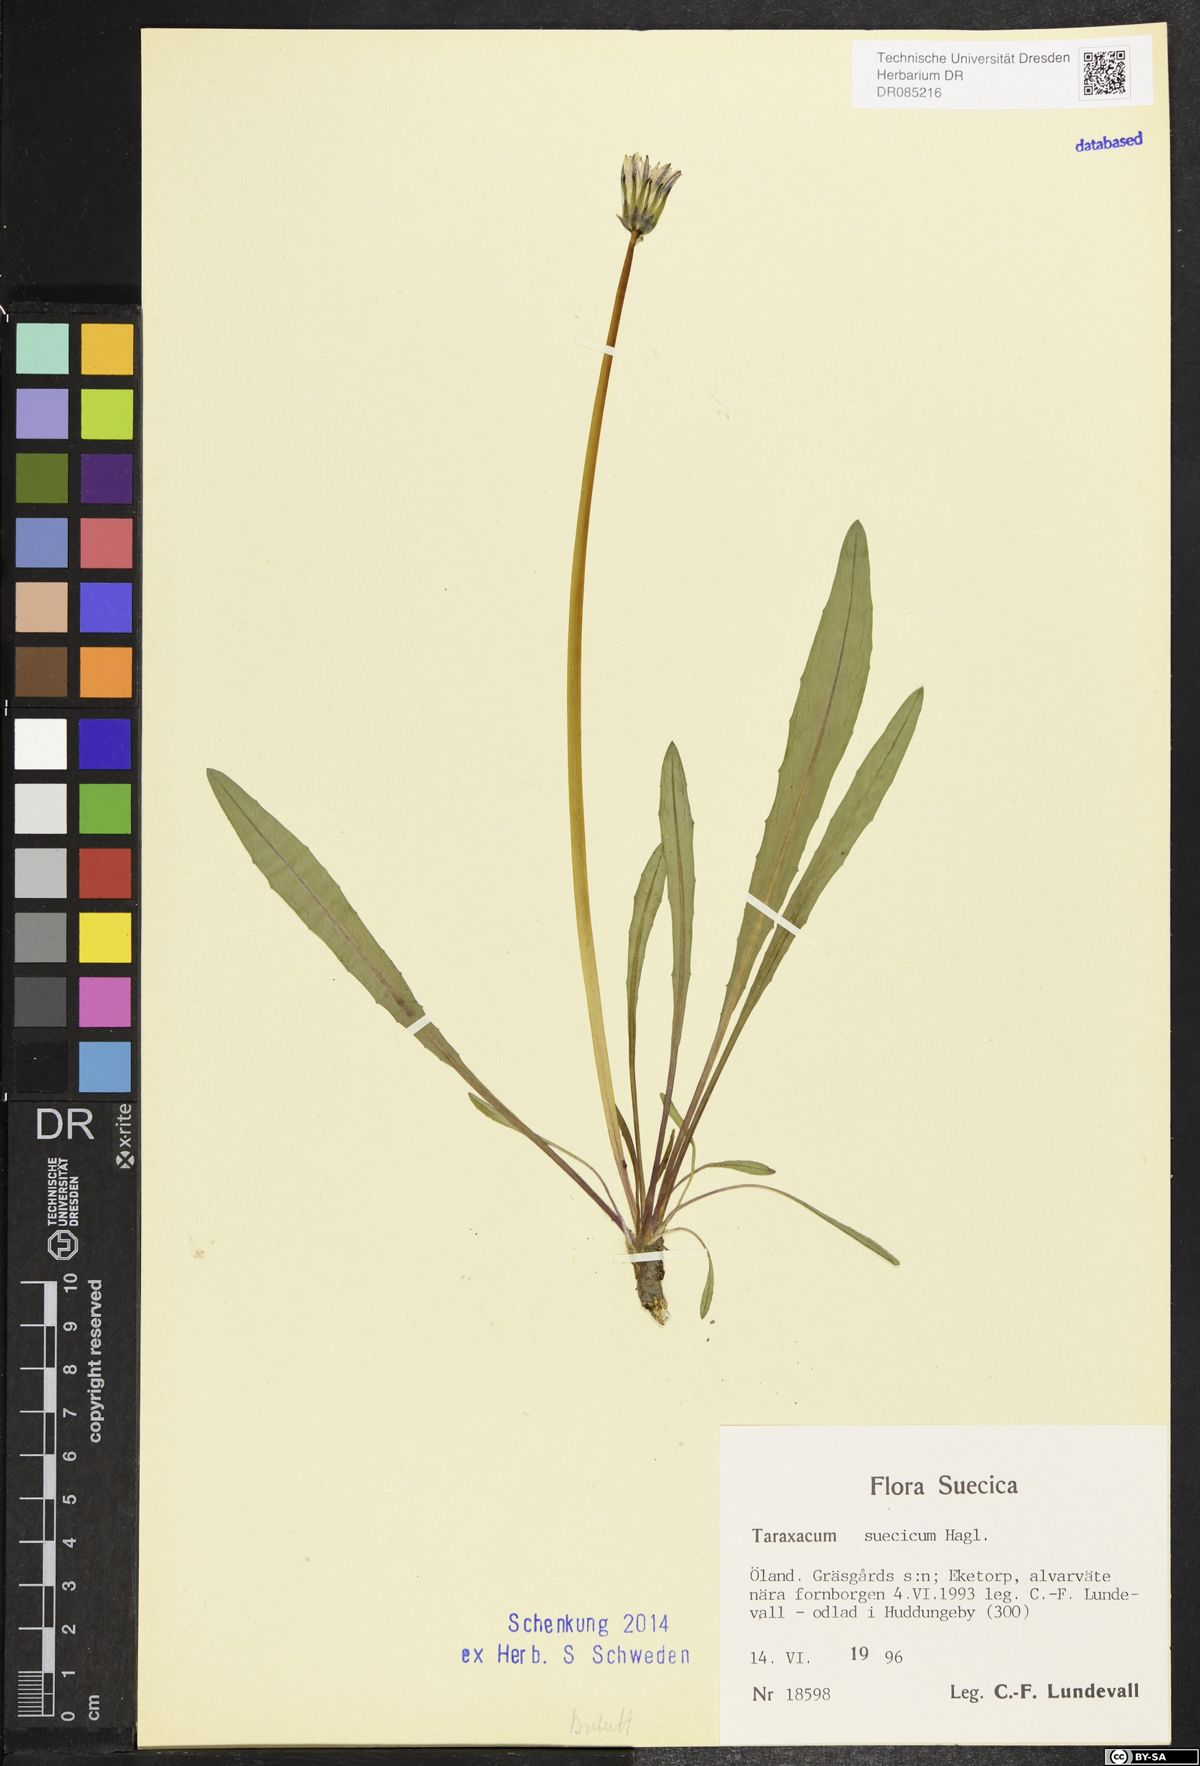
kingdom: Plantae
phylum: Tracheophyta
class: Magnoliopsida
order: Asterales
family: Asteraceae
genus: Taraxacum
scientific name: Taraxacum suecicum
